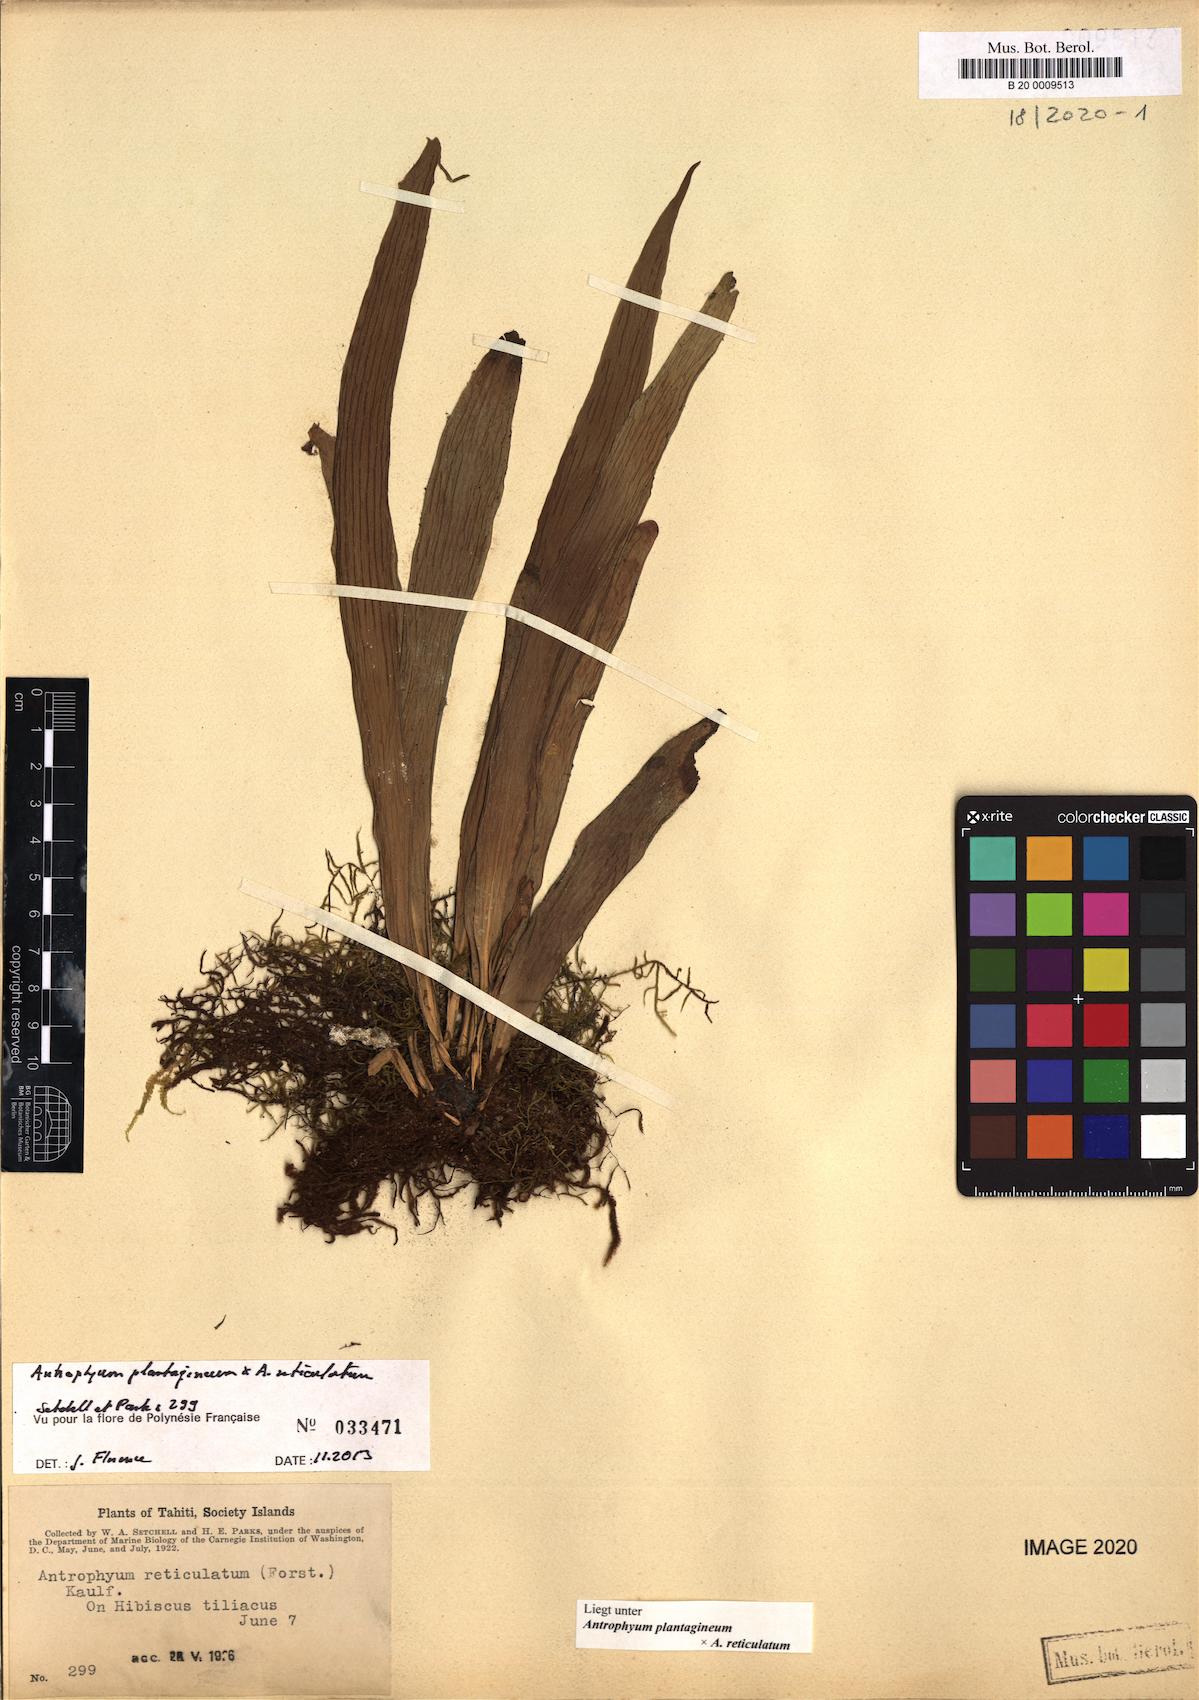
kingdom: Plantae
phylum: Tracheophyta
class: Polypodiopsida
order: Polypodiales
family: Pteridaceae
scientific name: Pteridaceae
